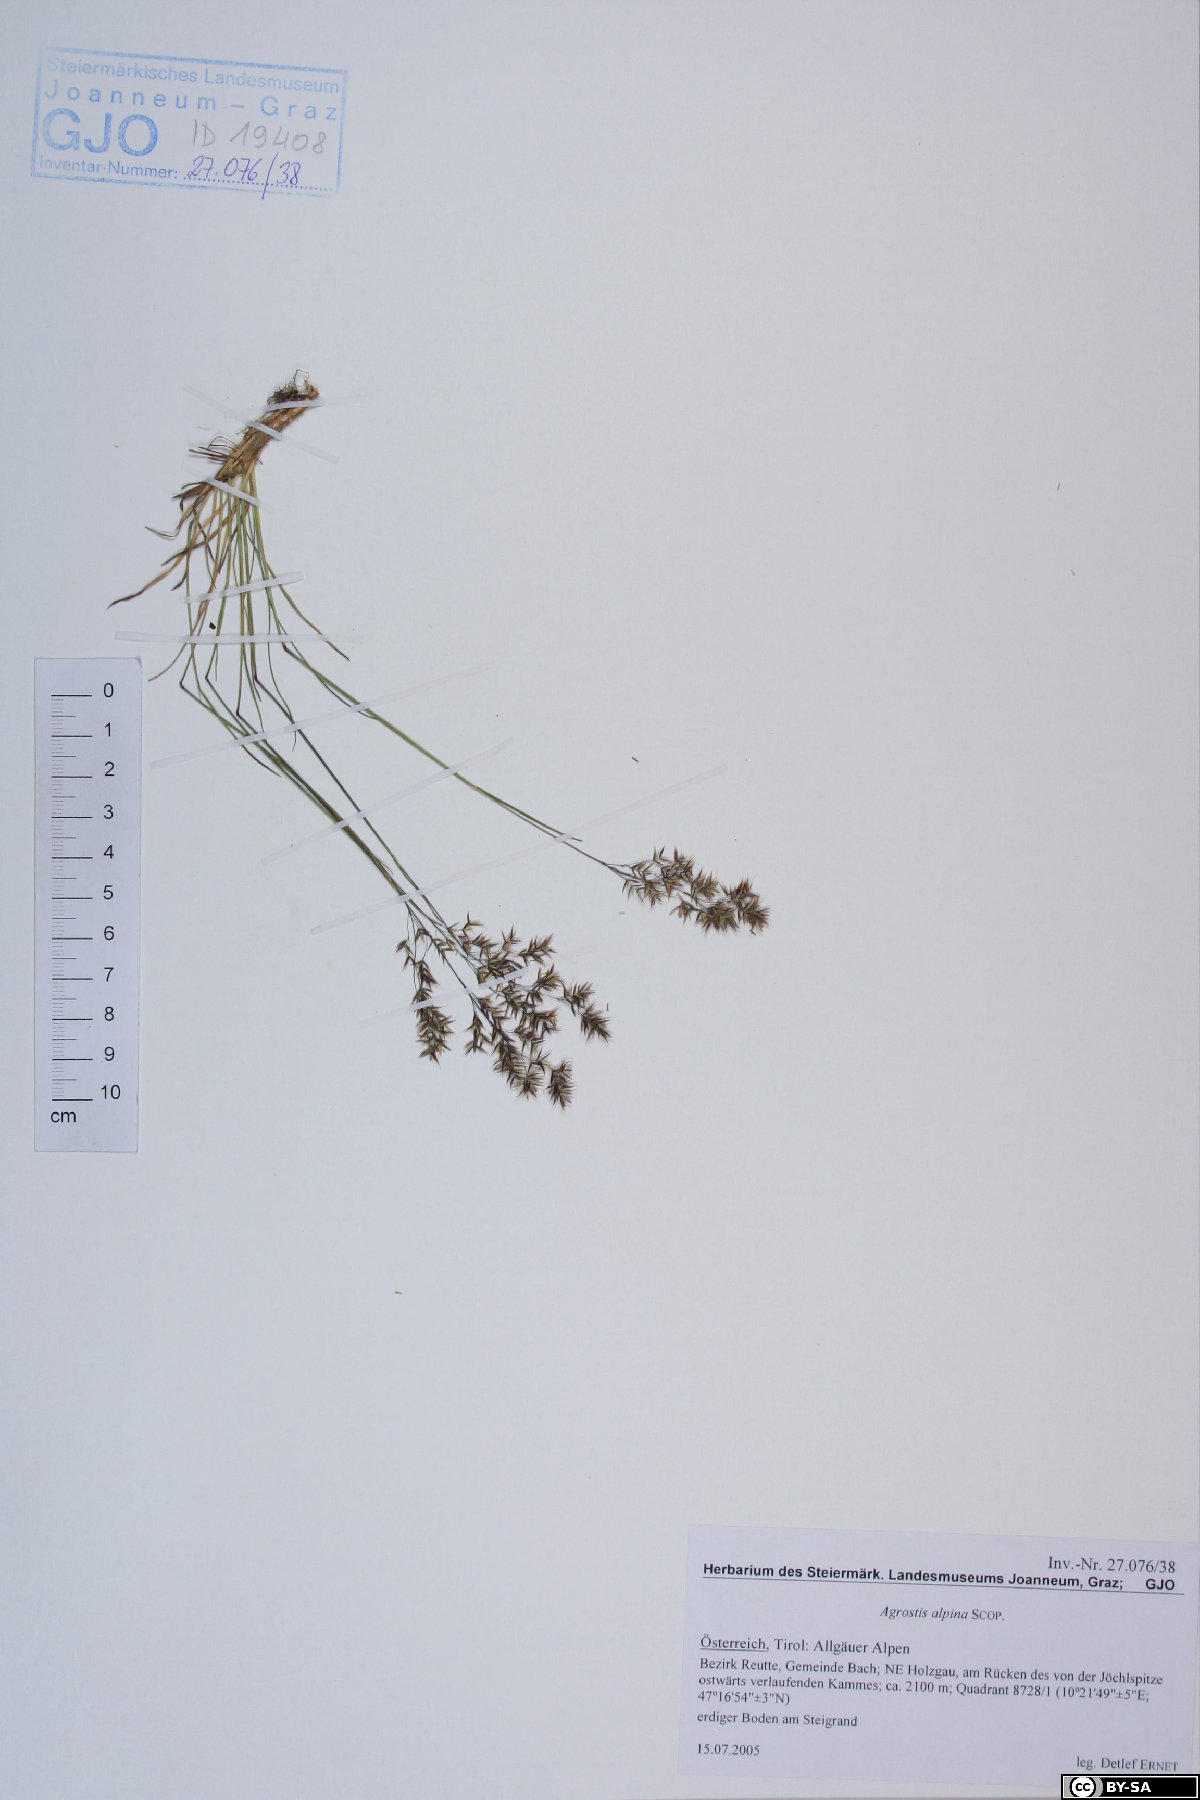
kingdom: Plantae
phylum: Tracheophyta
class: Liliopsida
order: Poales
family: Poaceae
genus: Alpagrostis
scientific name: Alpagrostis alpina
